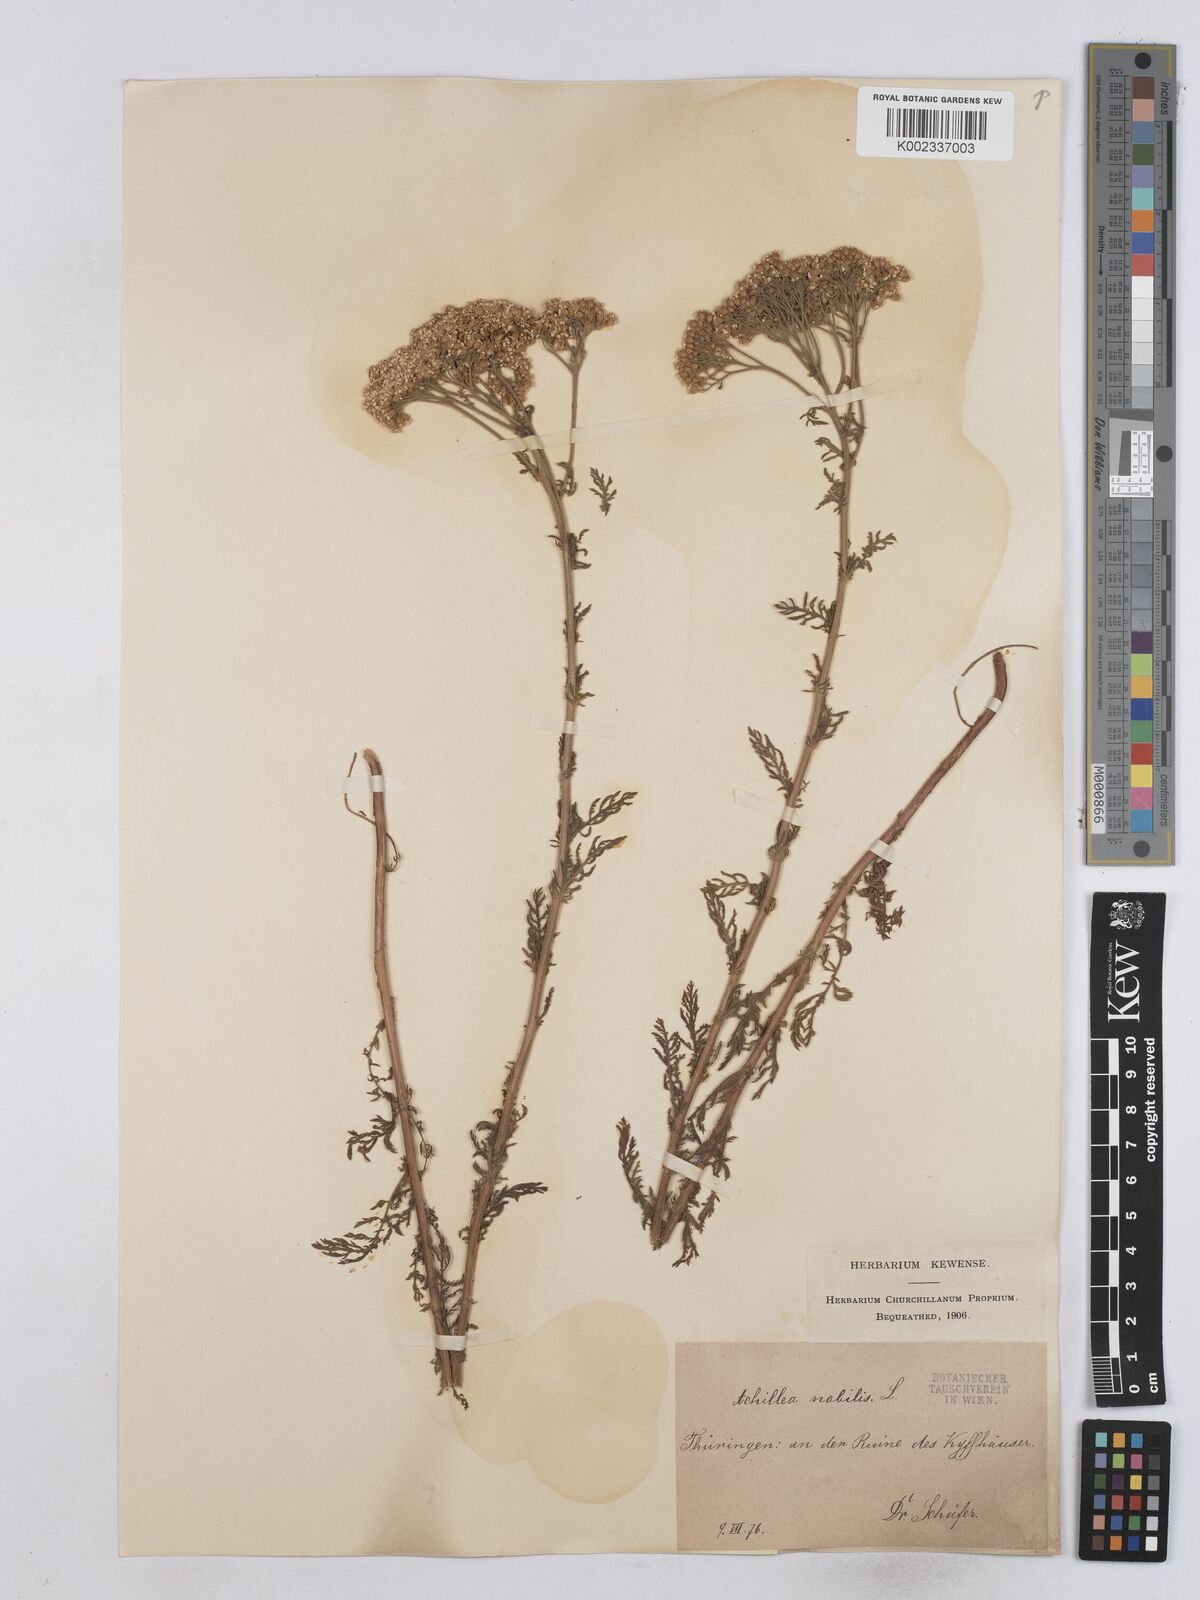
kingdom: Plantae
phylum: Tracheophyta
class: Magnoliopsida
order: Asterales
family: Asteraceae
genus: Achillea
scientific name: Achillea nobilis
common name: Noble yarrow
